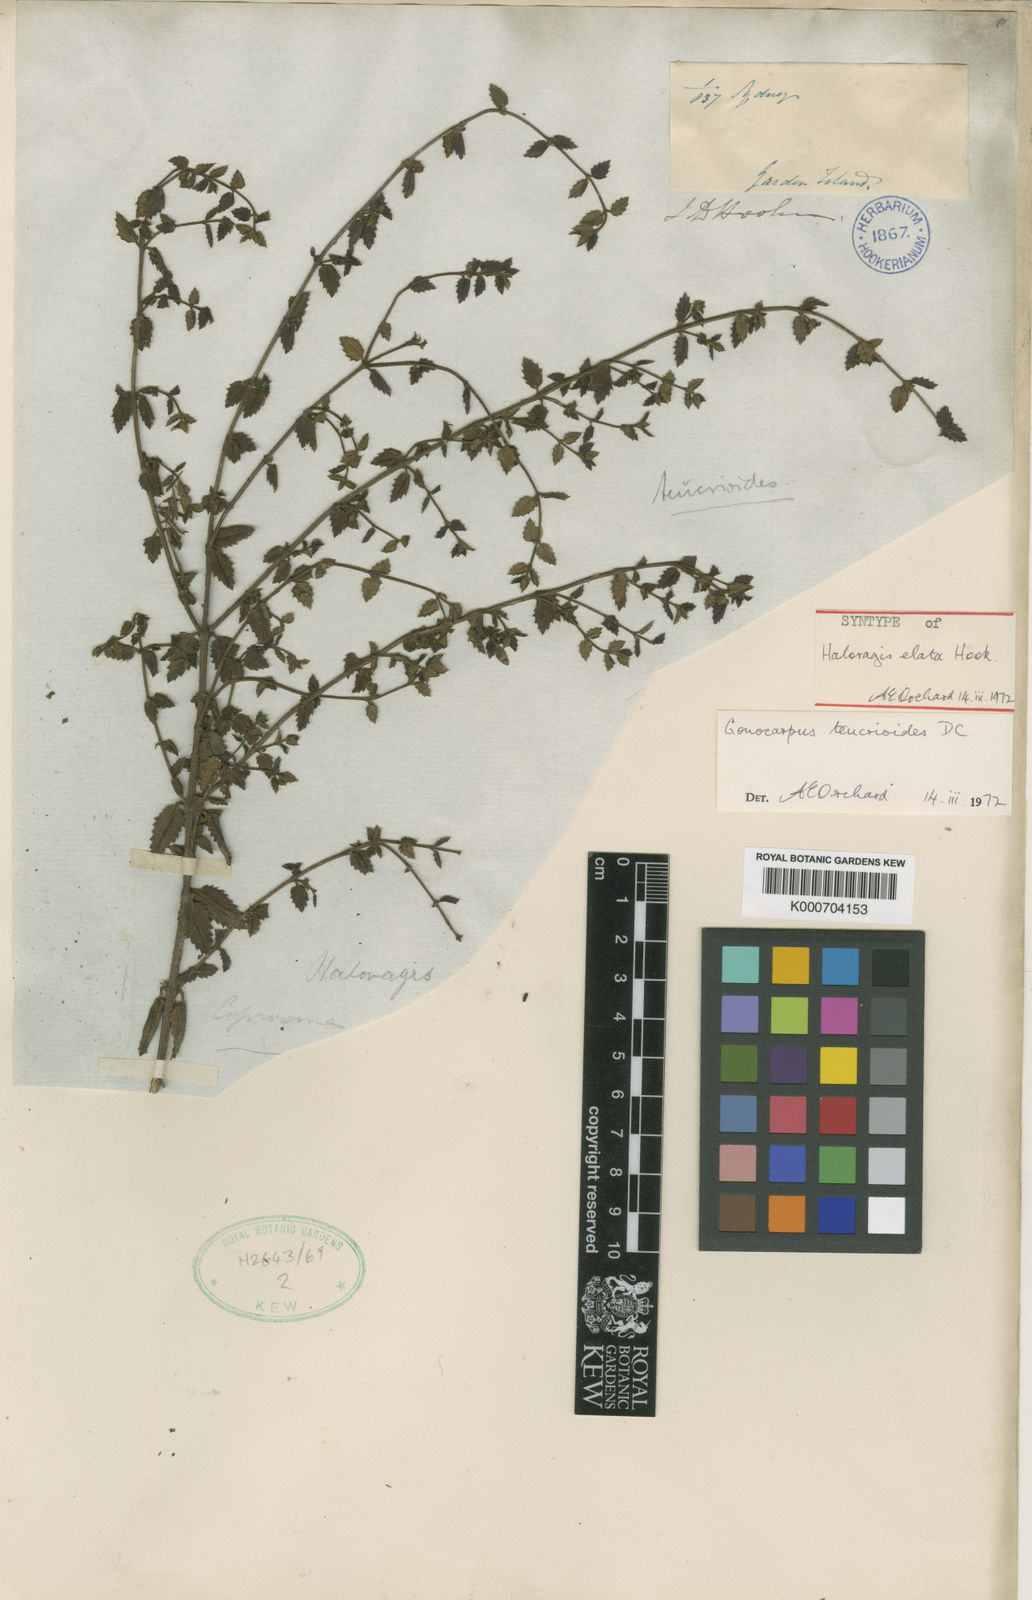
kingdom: Plantae
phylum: Tracheophyta
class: Magnoliopsida
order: Saxifragales
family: Haloragaceae
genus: Gonocarpus
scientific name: Gonocarpus teucrioides
